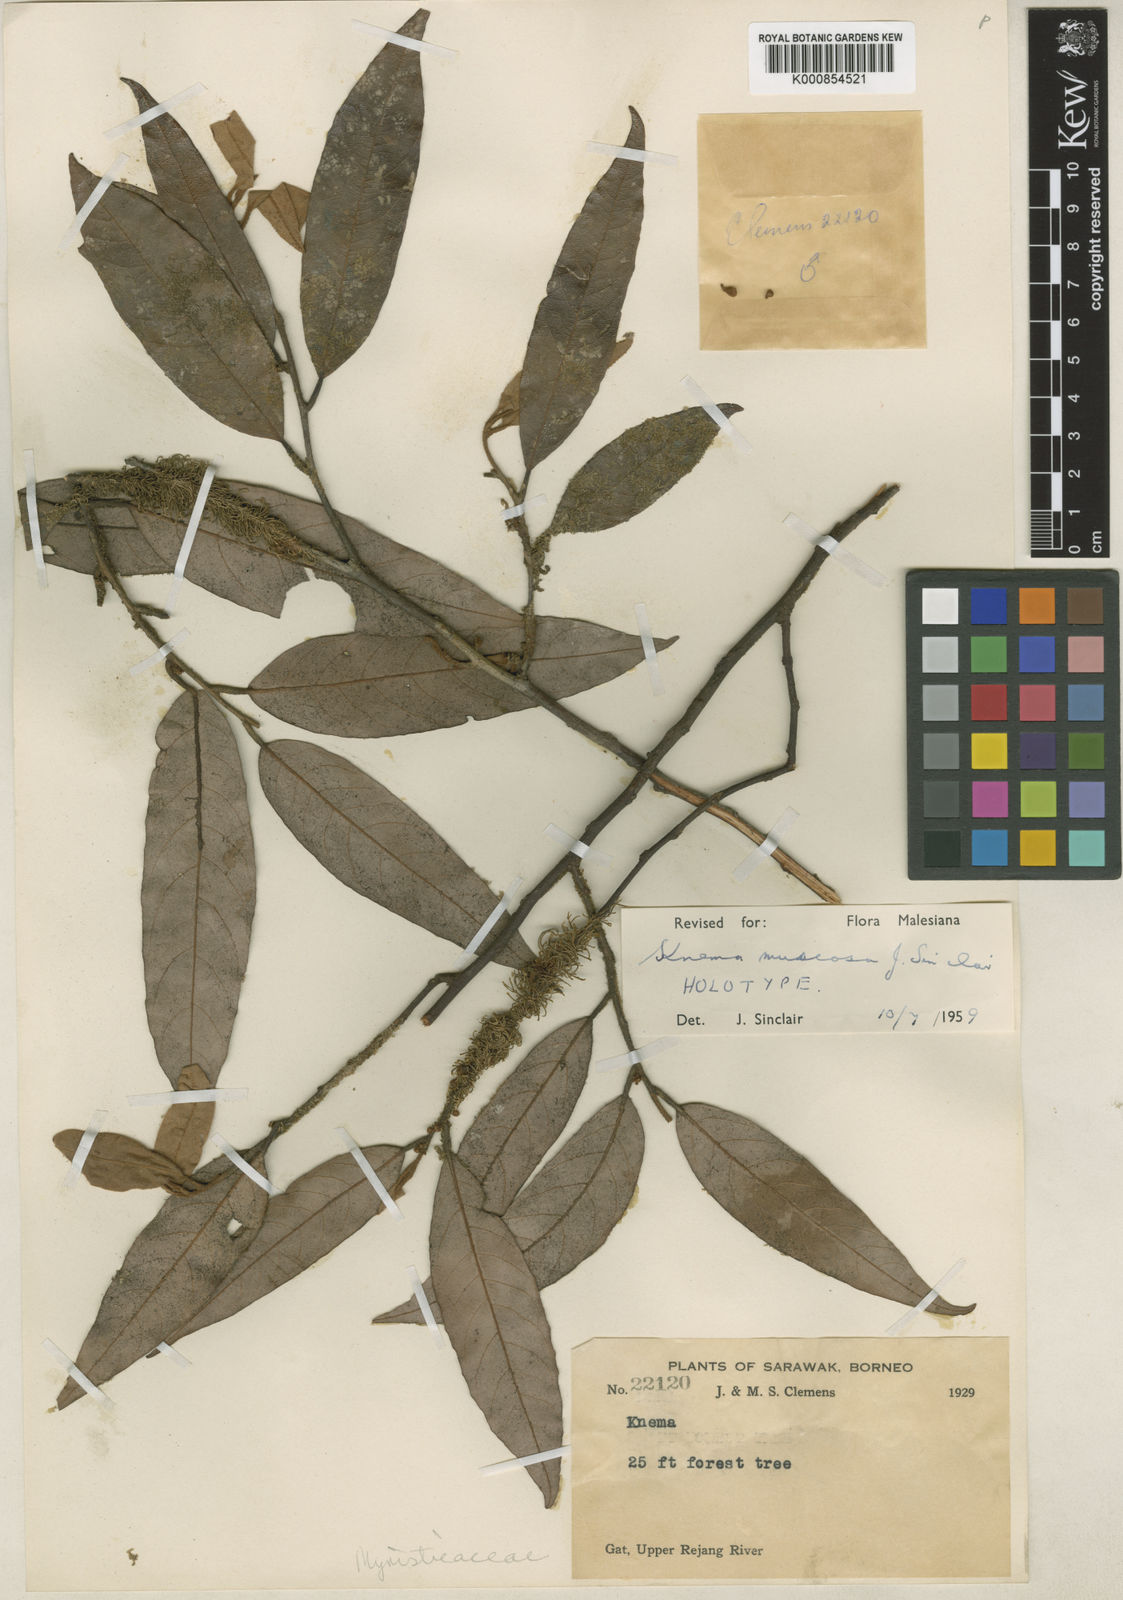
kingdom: Plantae
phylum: Tracheophyta
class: Magnoliopsida
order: Magnoliales
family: Myristicaceae
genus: Knema
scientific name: Knema muscosa
